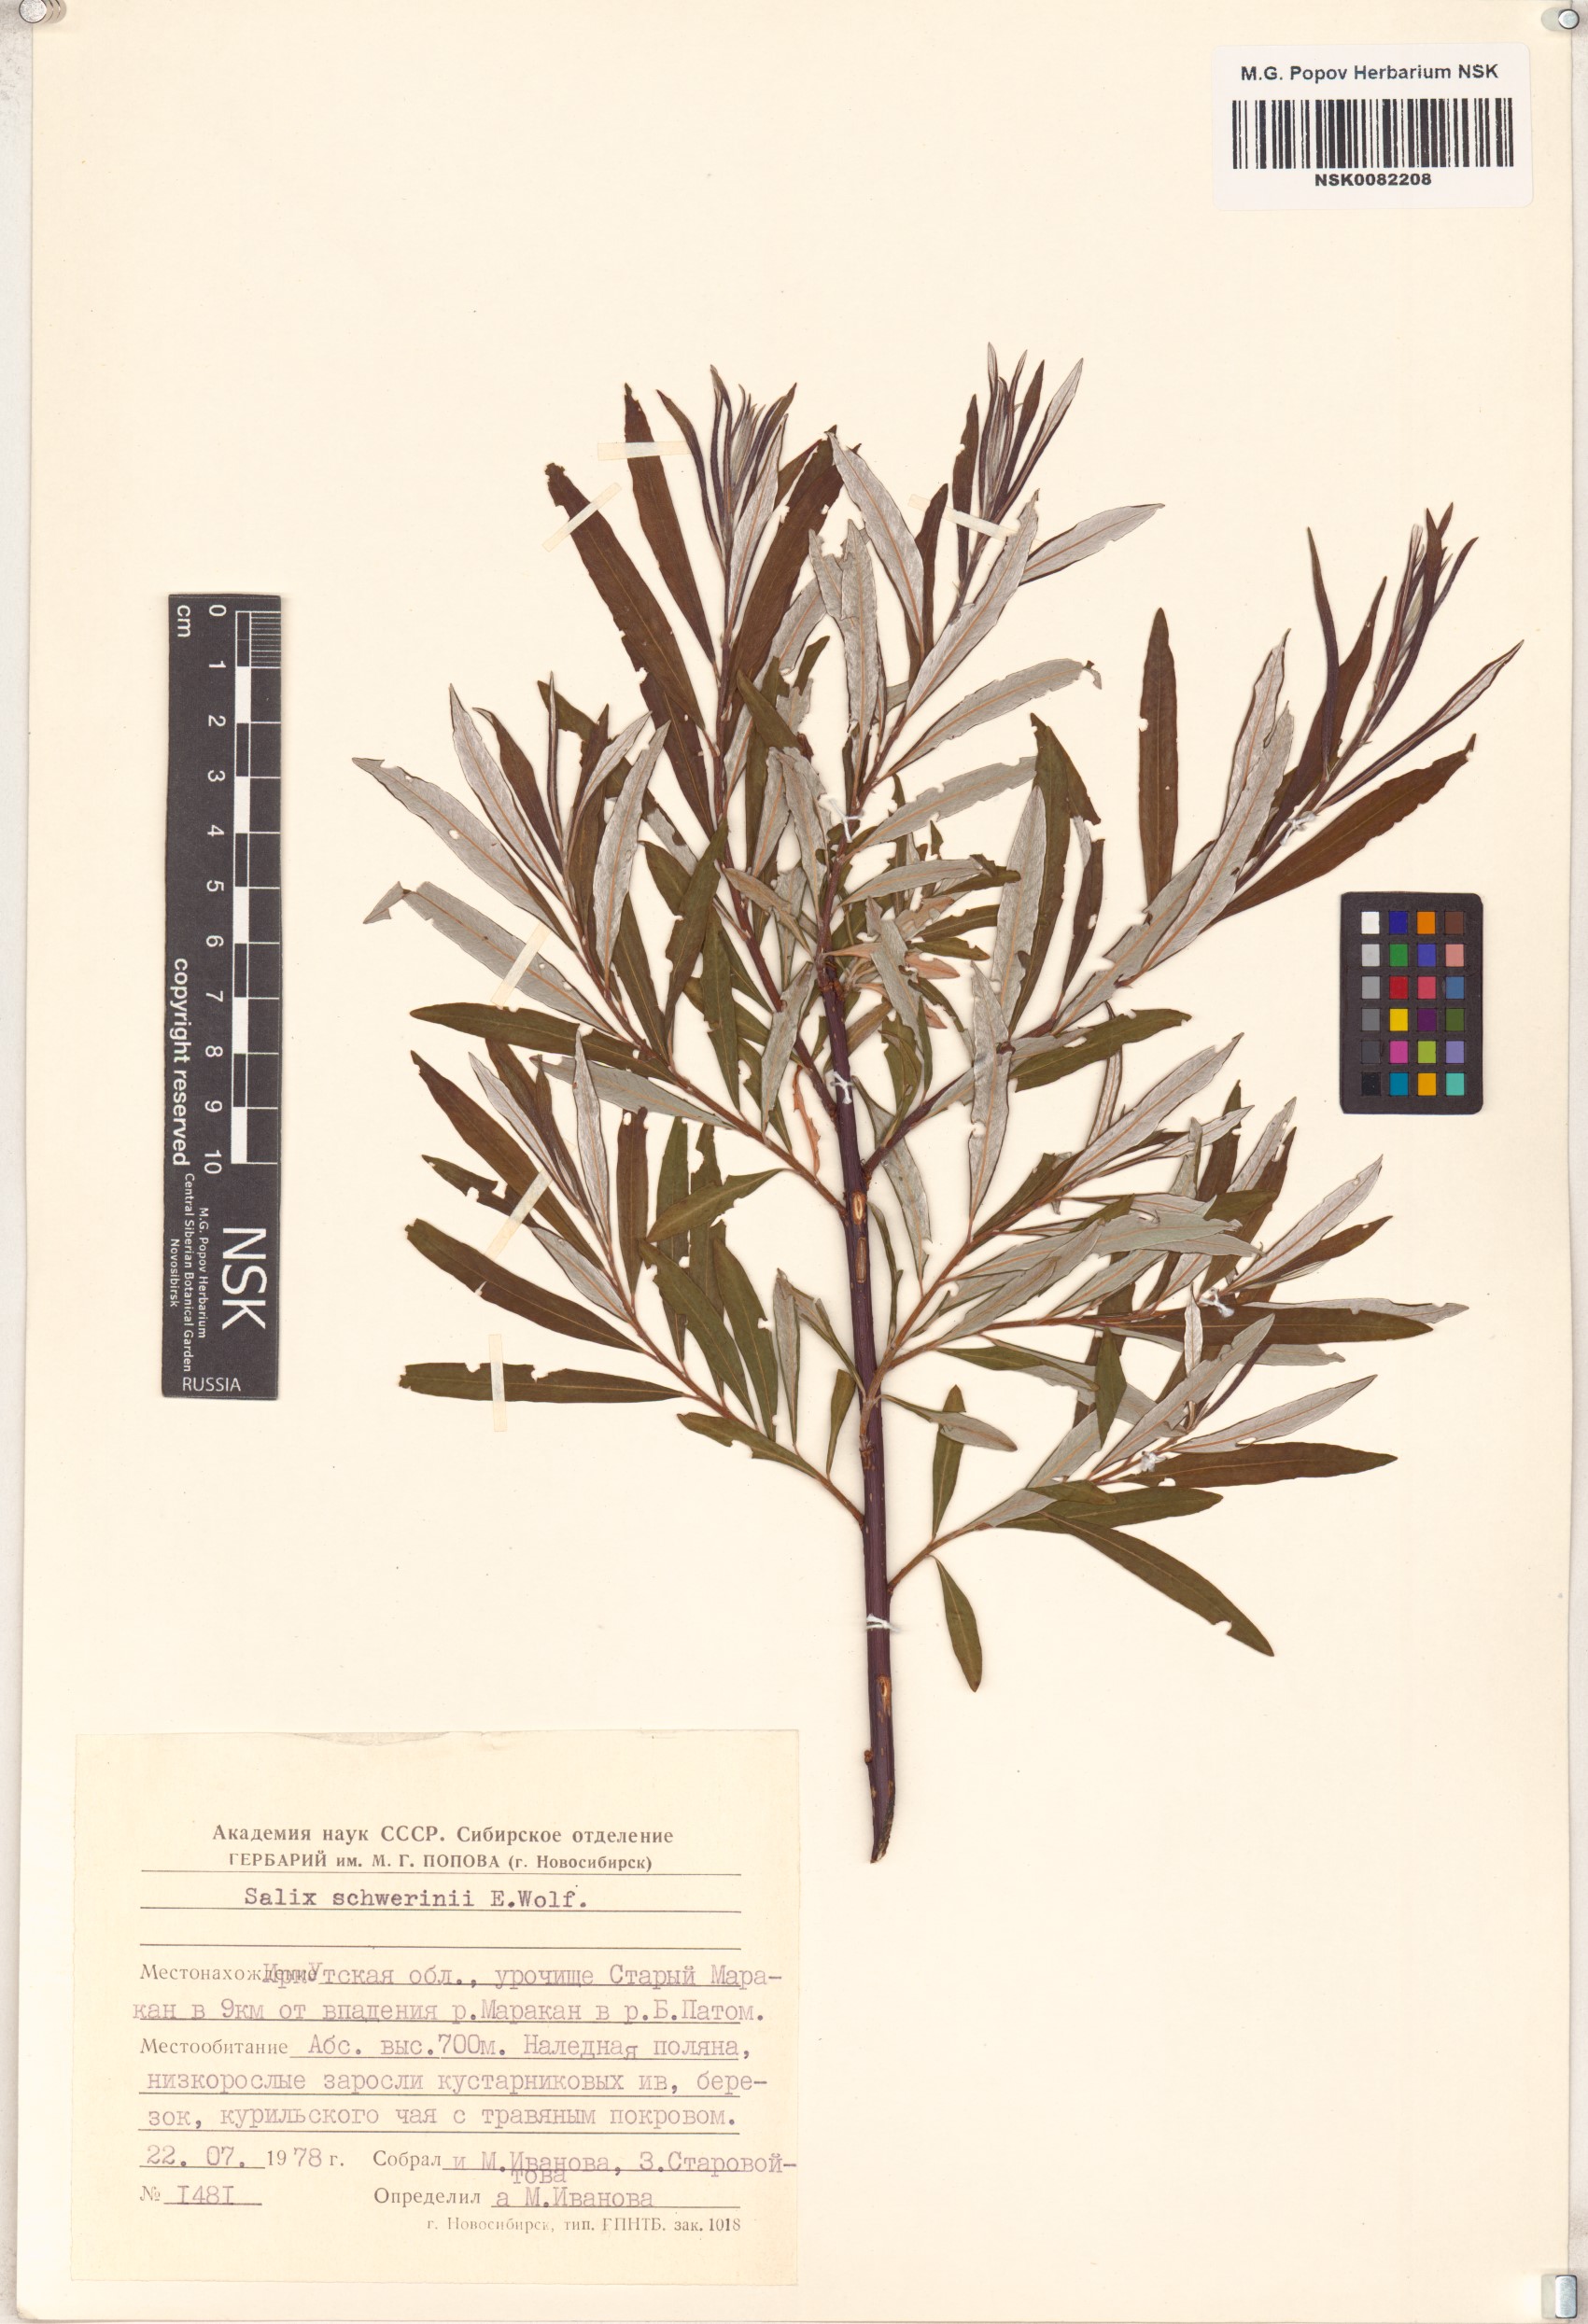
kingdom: Plantae
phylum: Tracheophyta
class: Magnoliopsida
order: Malpighiales
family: Salicaceae
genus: Salix
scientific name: Salix schwerinii
